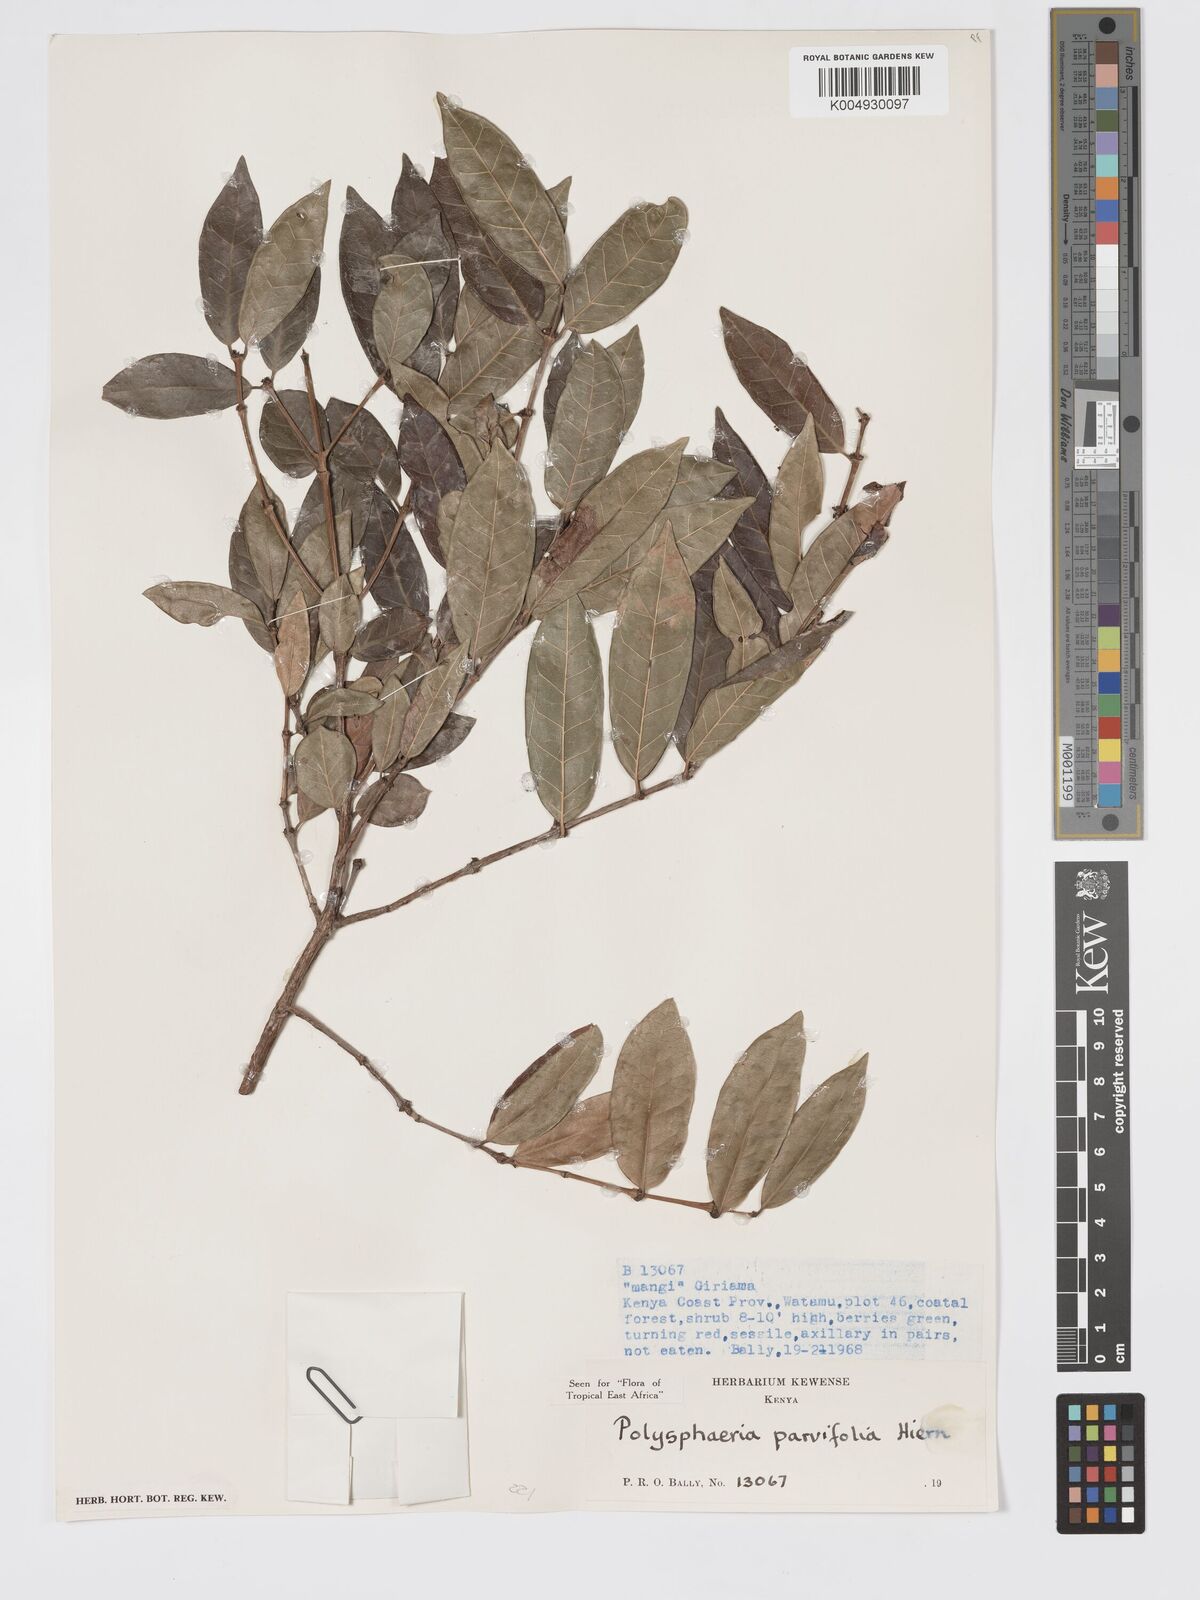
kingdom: Plantae
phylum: Tracheophyta
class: Magnoliopsida
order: Gentianales
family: Rubiaceae
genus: Eumachia
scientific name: Eumachia parviflora
